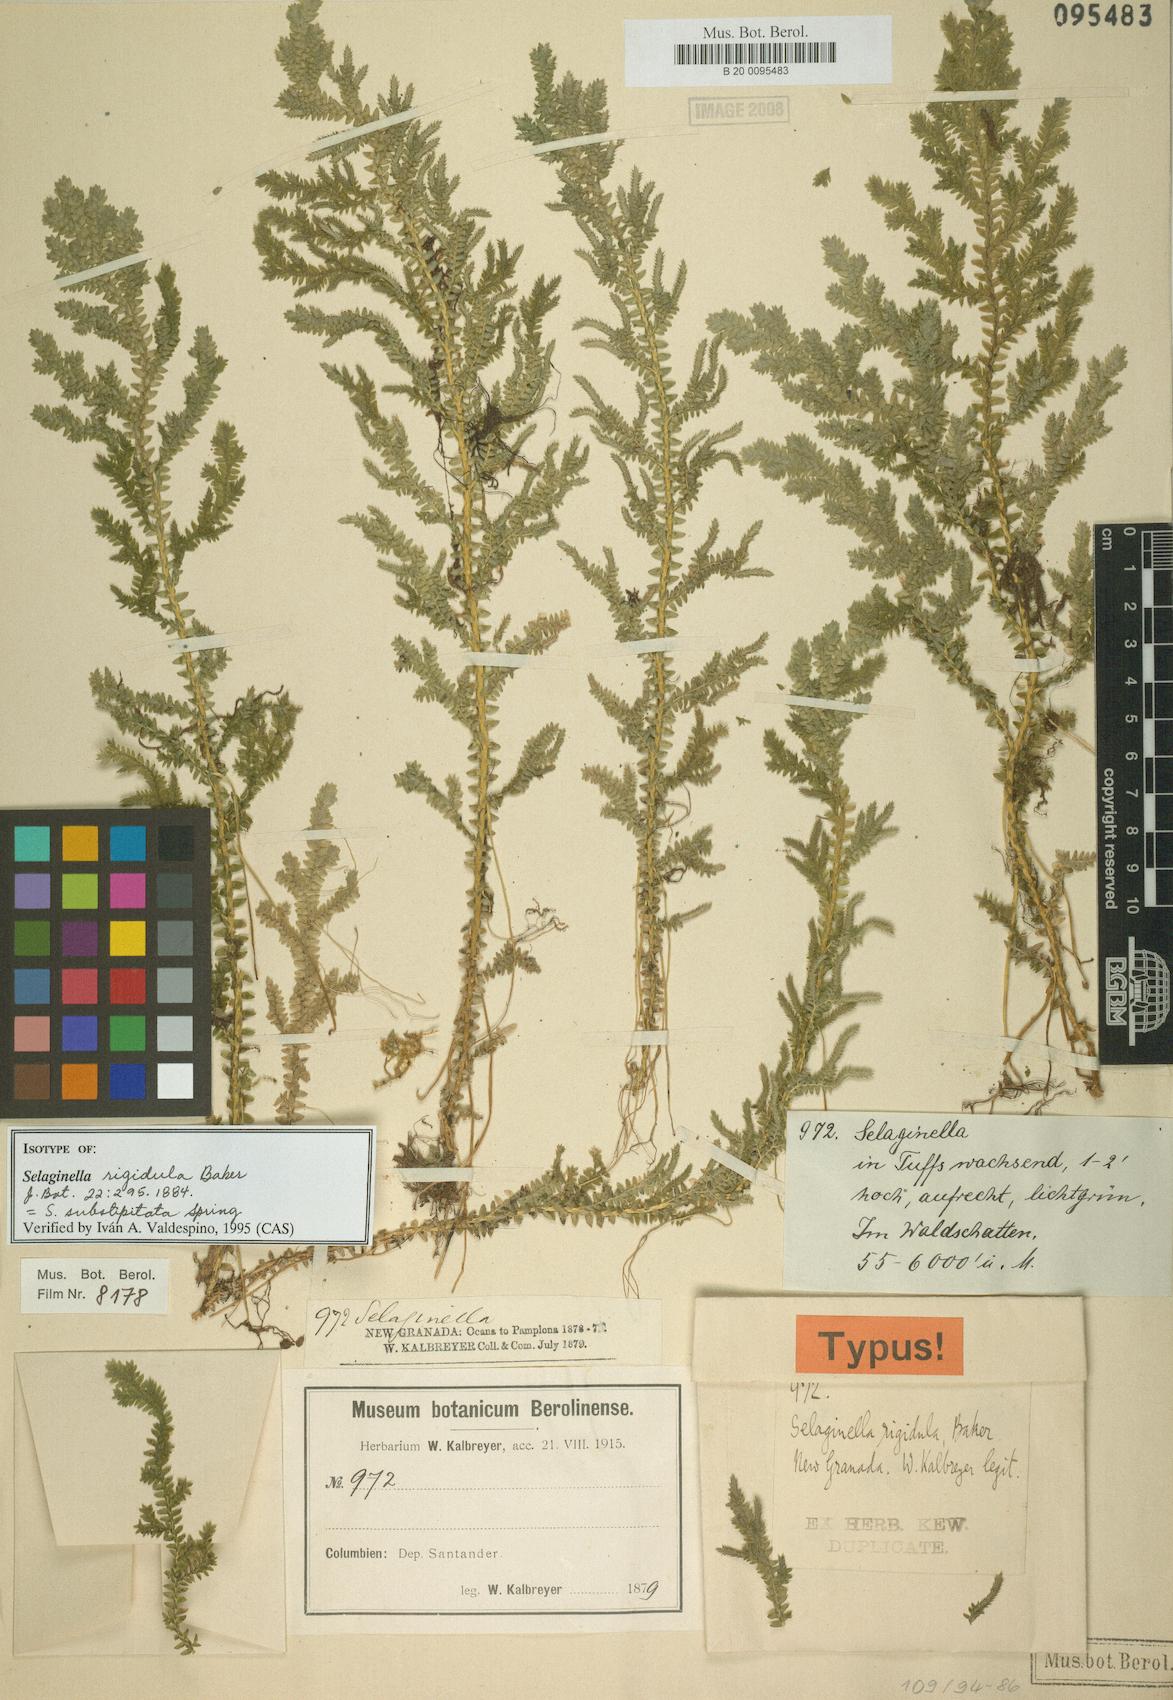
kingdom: Plantae
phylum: Tracheophyta
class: Lycopodiopsida
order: Selaginellales
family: Selaginellaceae
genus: Selaginella
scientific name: Selaginella substipitata
